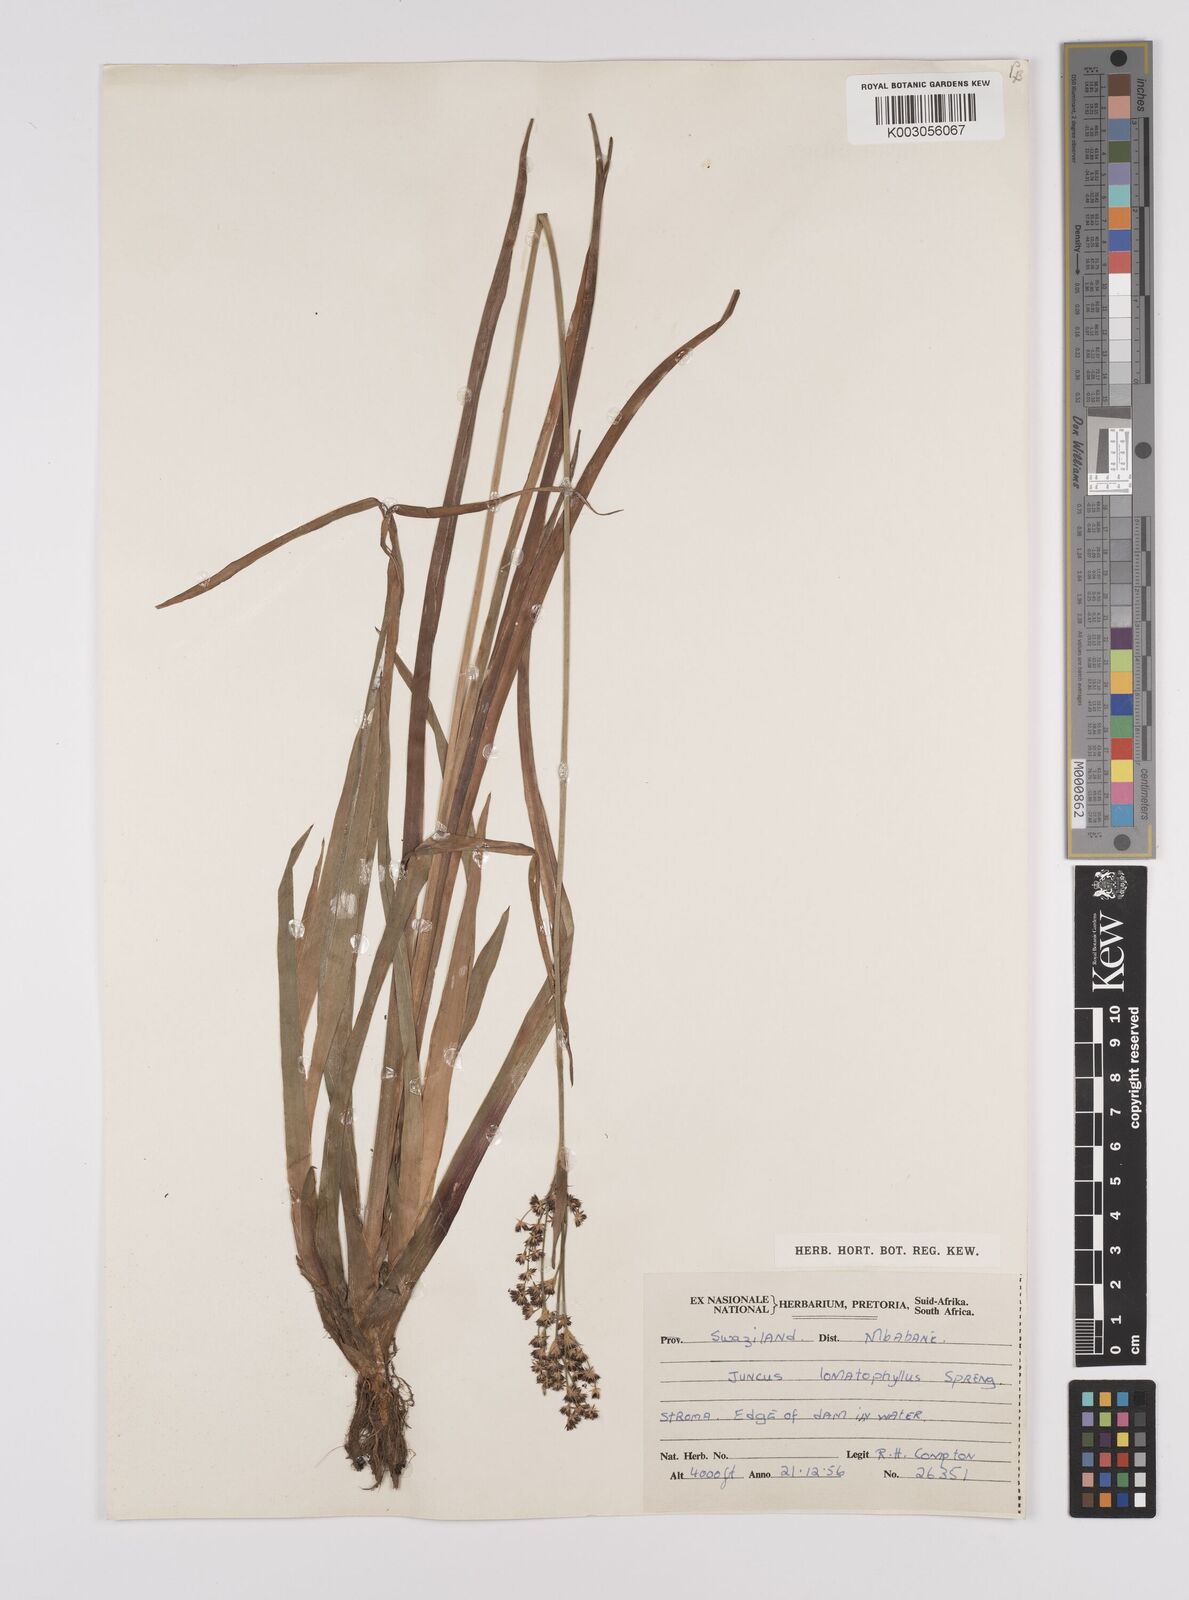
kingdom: Plantae
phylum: Tracheophyta
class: Liliopsida
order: Poales
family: Juncaceae
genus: Juncus
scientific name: Juncus lomatophyllus
